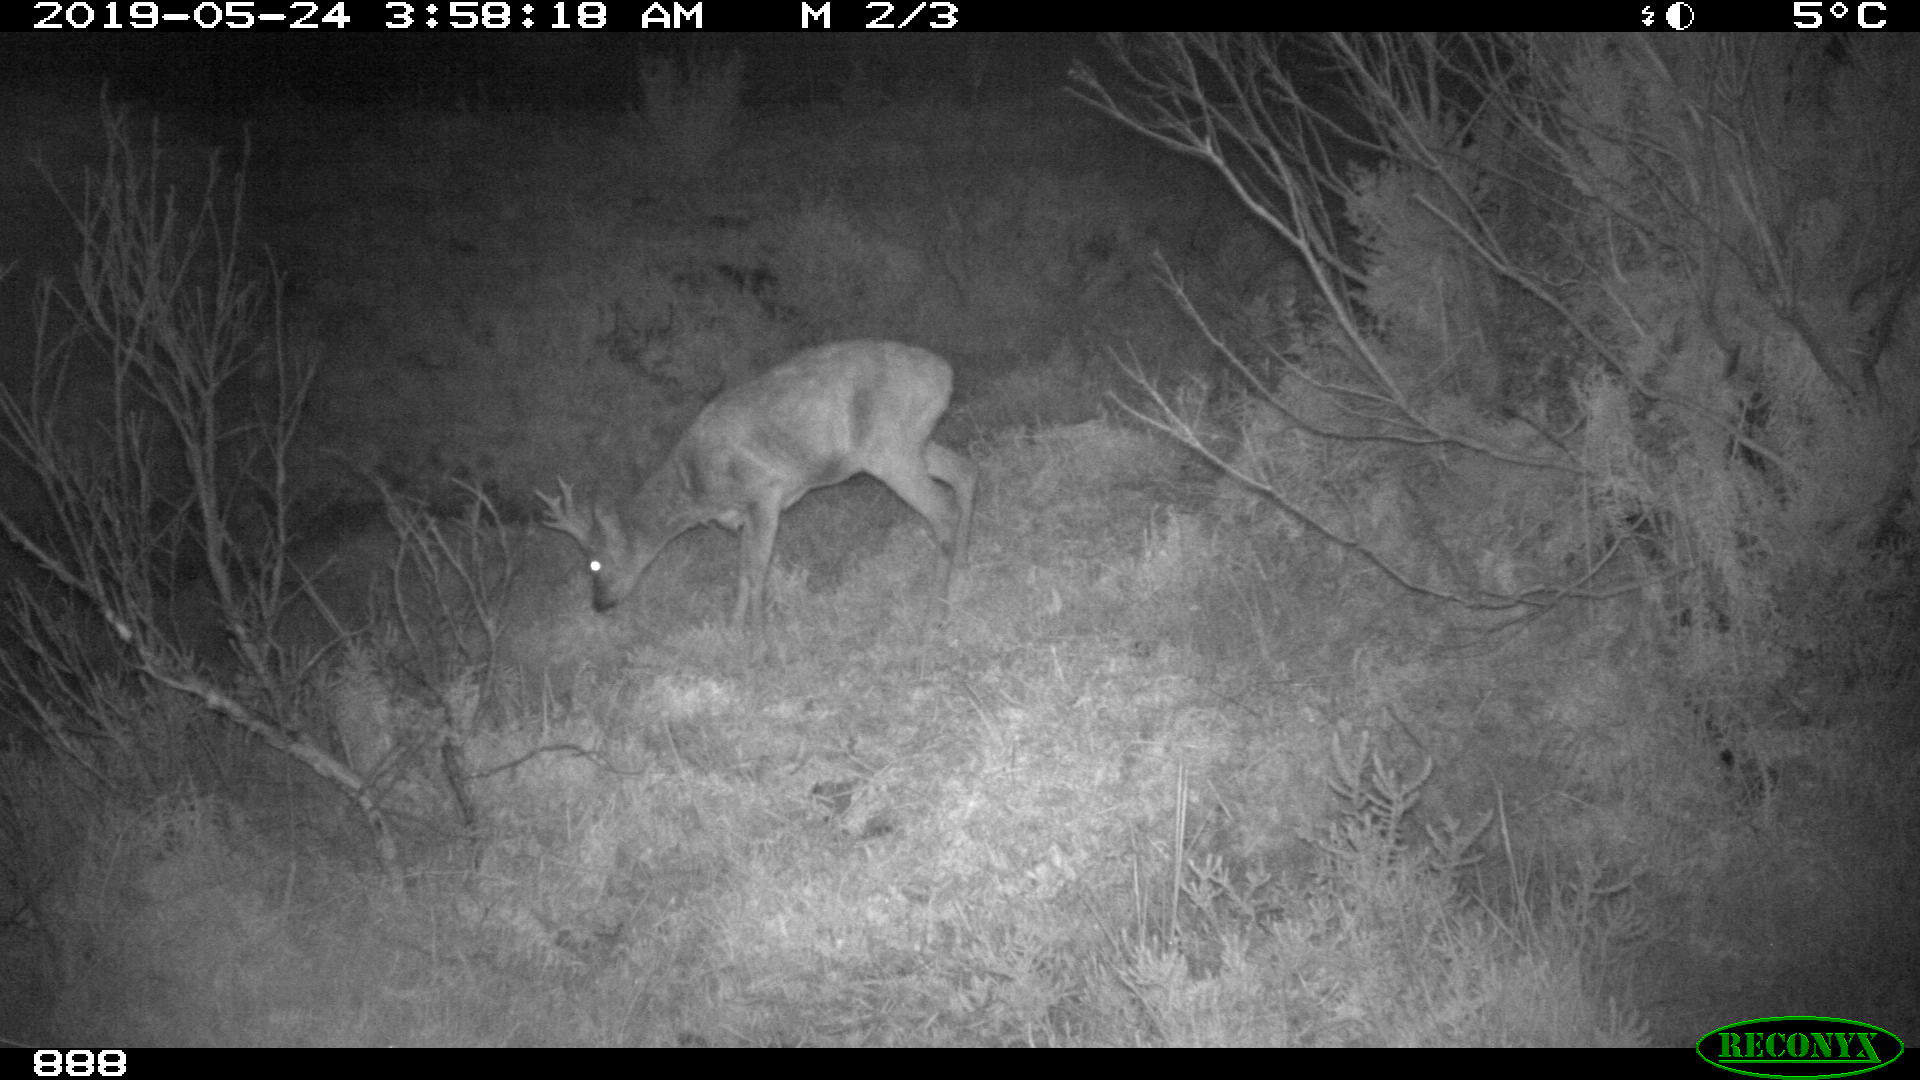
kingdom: Animalia
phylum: Chordata
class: Mammalia
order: Artiodactyla
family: Cervidae
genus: Capreolus
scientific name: Capreolus capreolus
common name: Western roe deer
